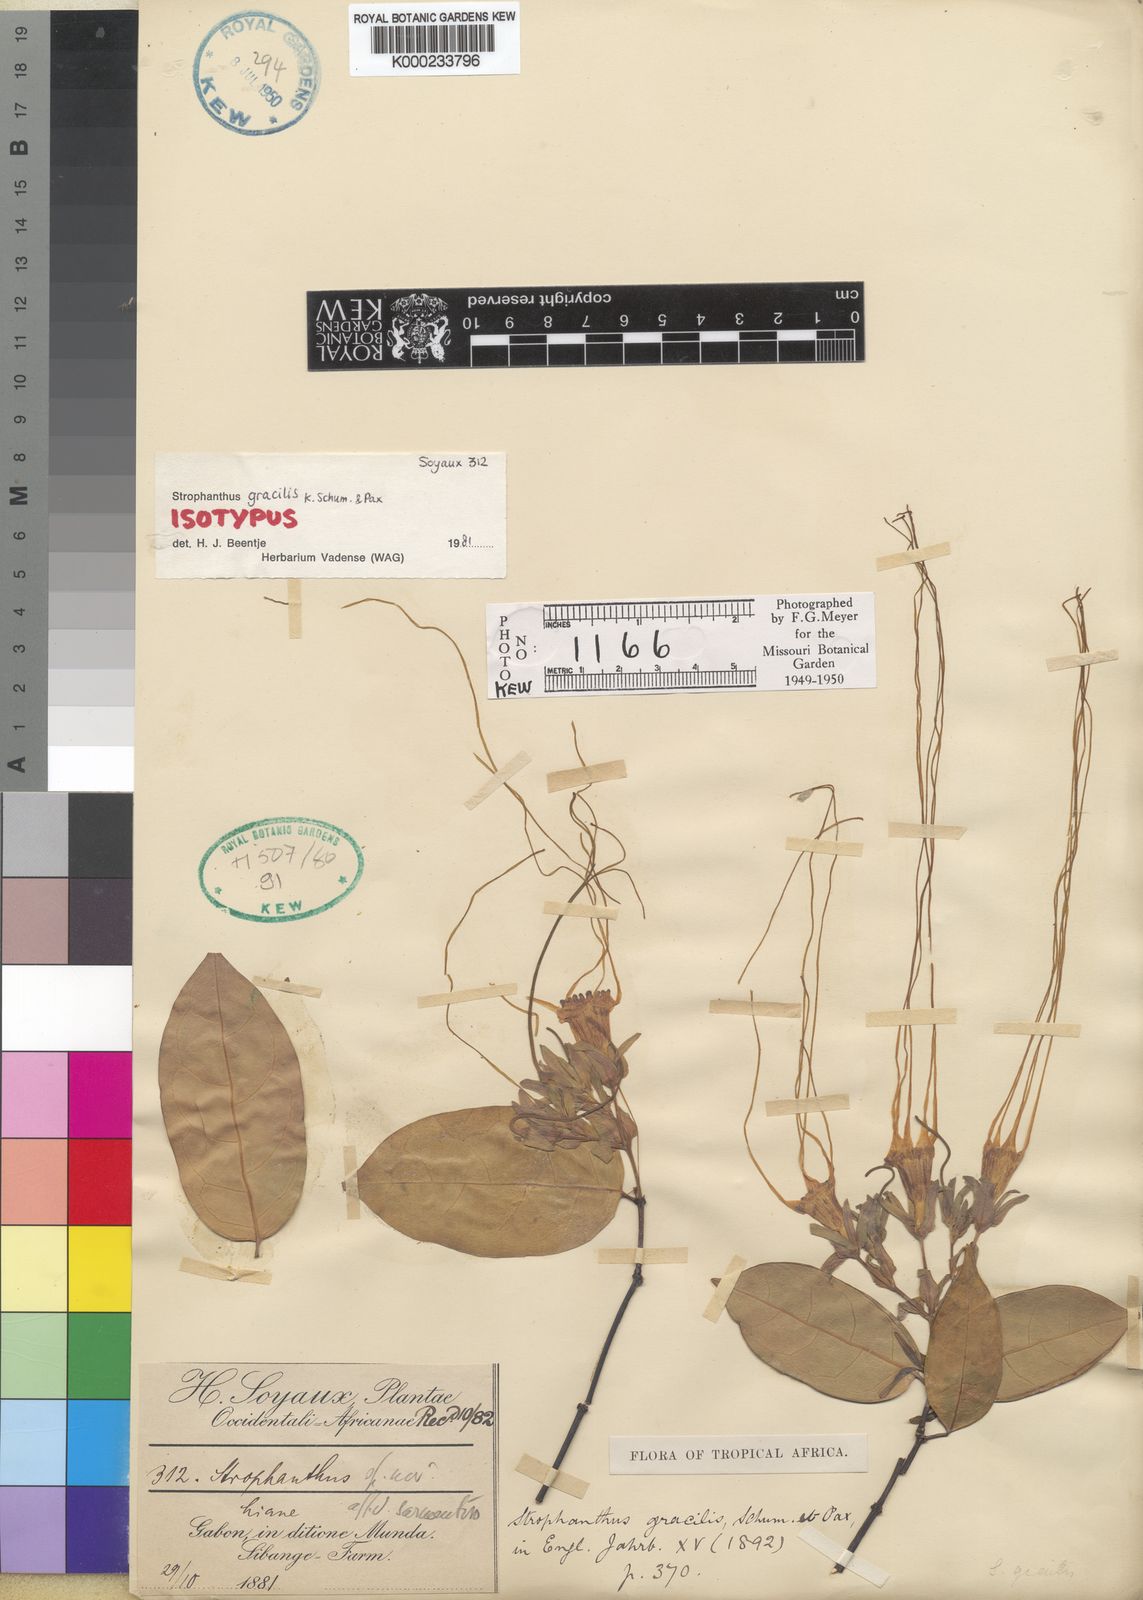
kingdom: Plantae
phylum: Tracheophyta
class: Magnoliopsida
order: Gentianales
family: Apocynaceae
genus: Strophanthus
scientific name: Strophanthus gracilis
